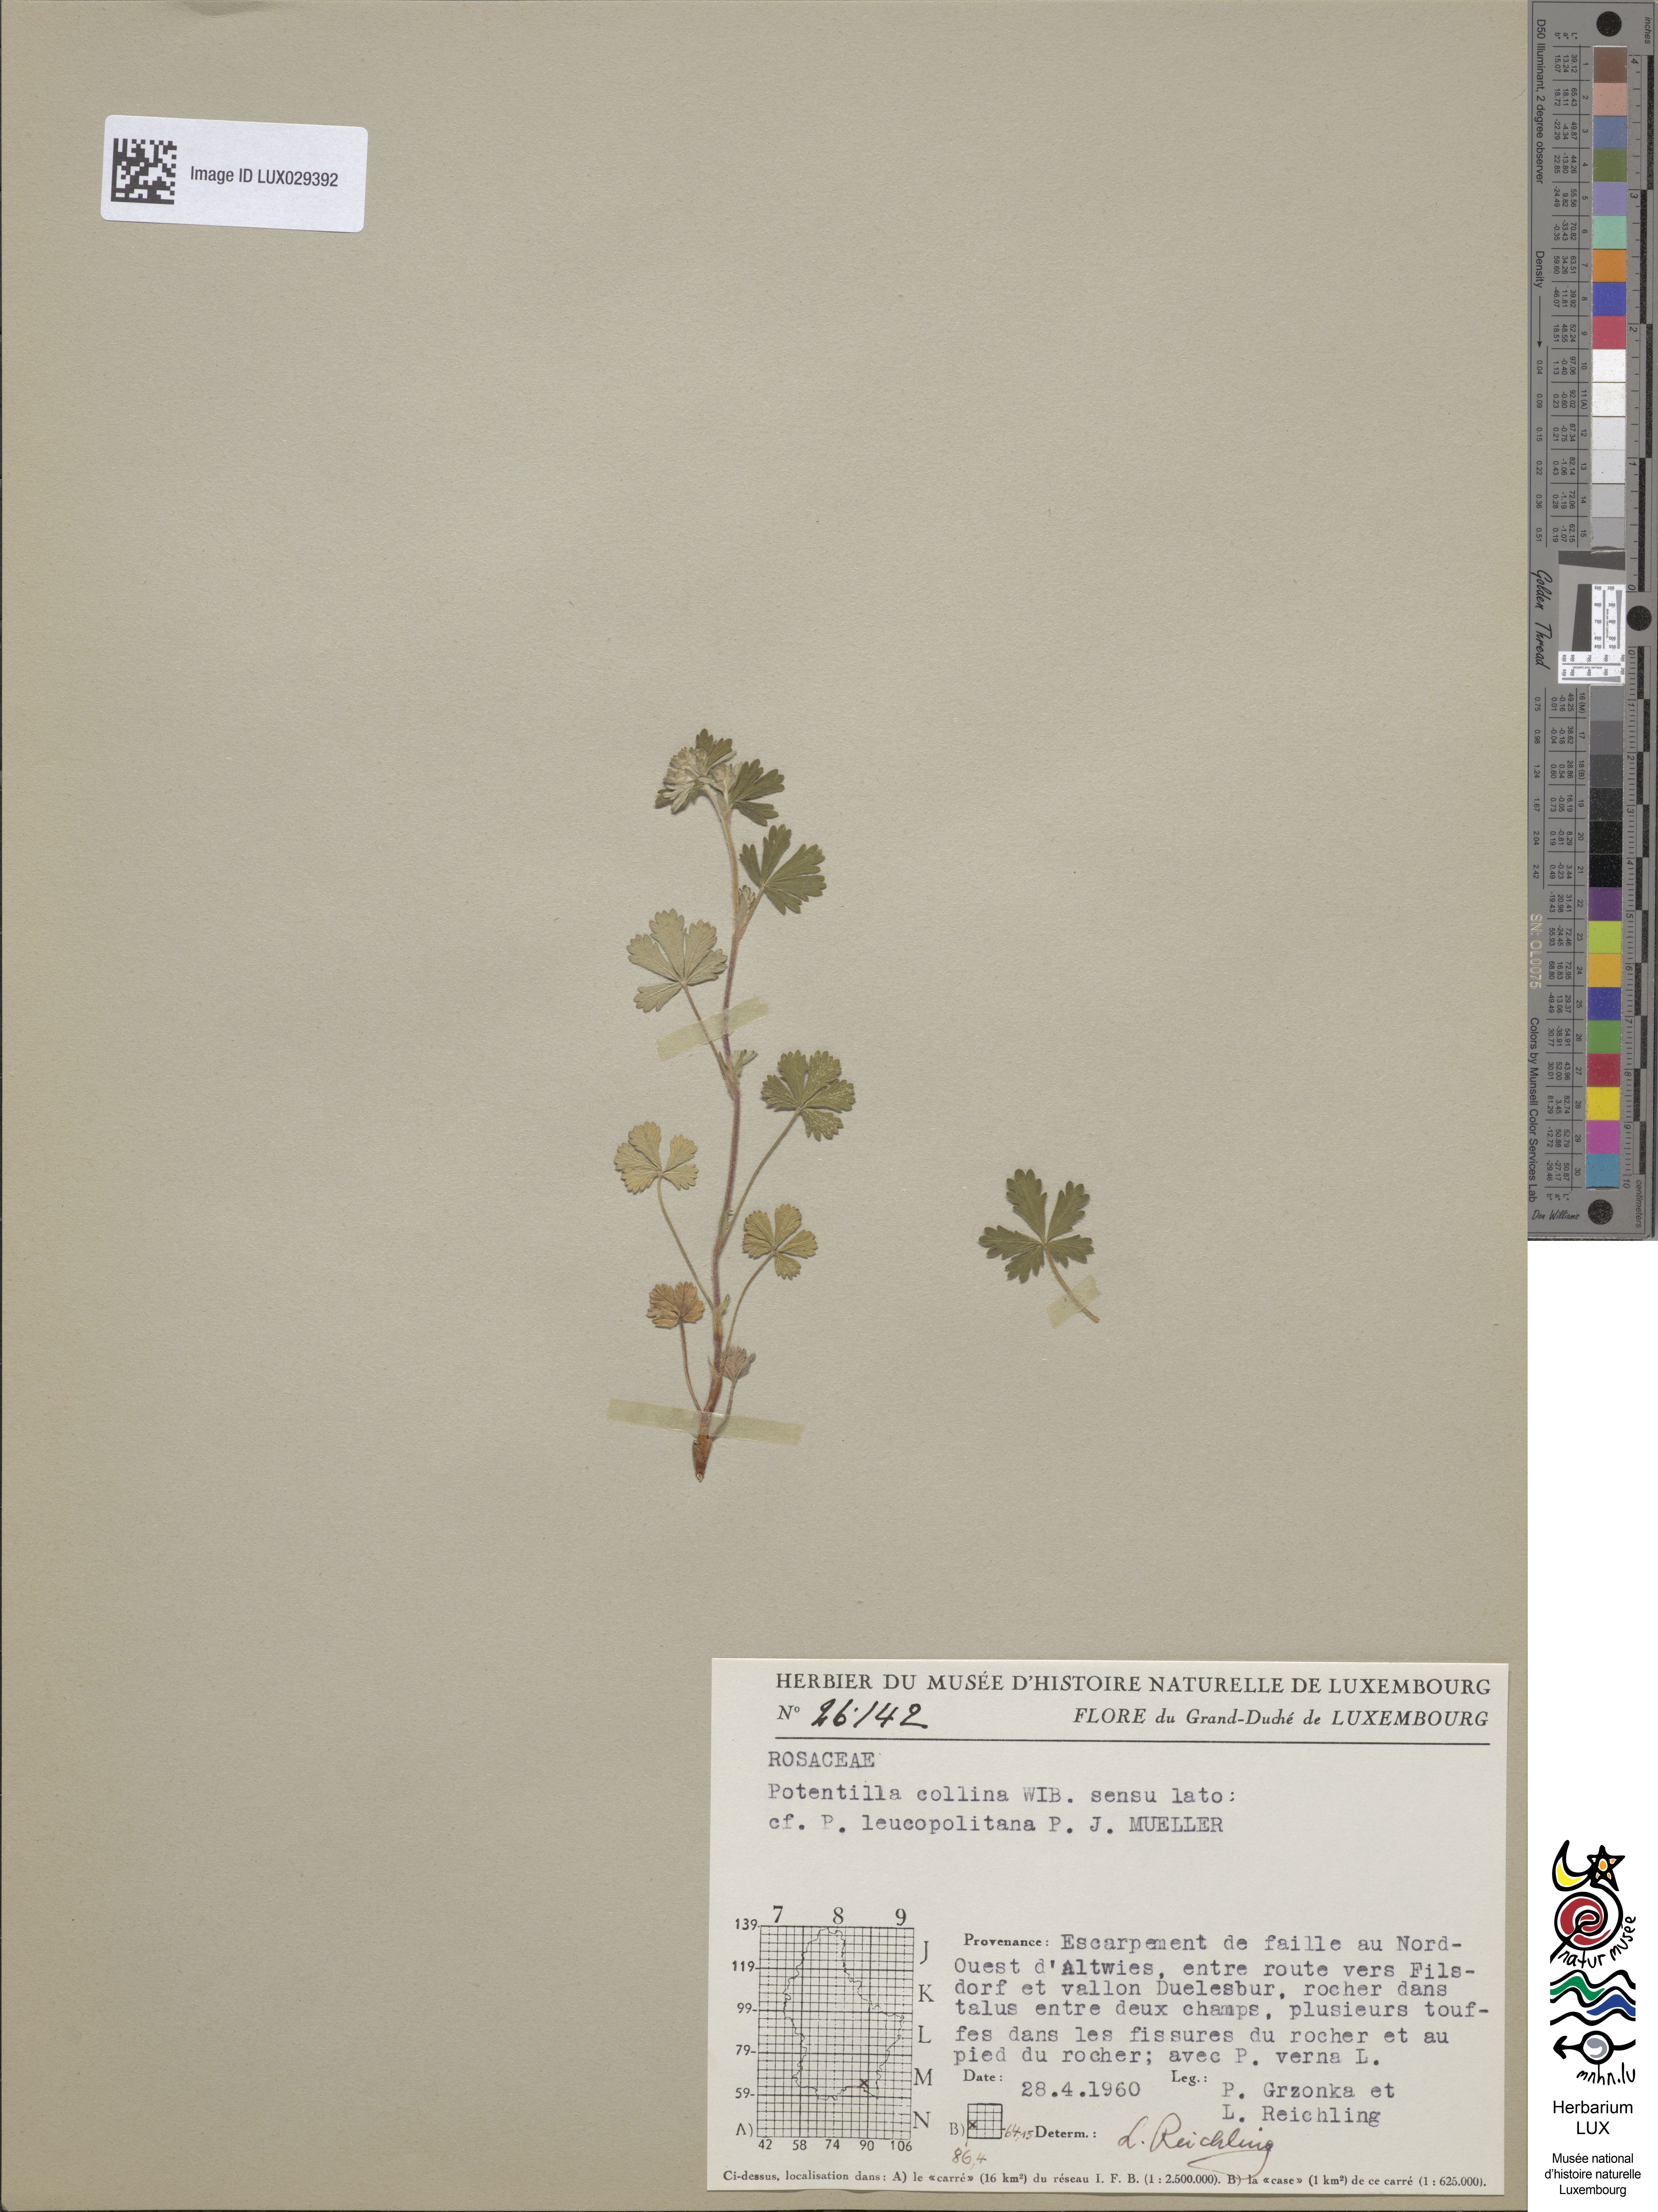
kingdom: Plantae
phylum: Tracheophyta
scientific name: Tracheophyta
